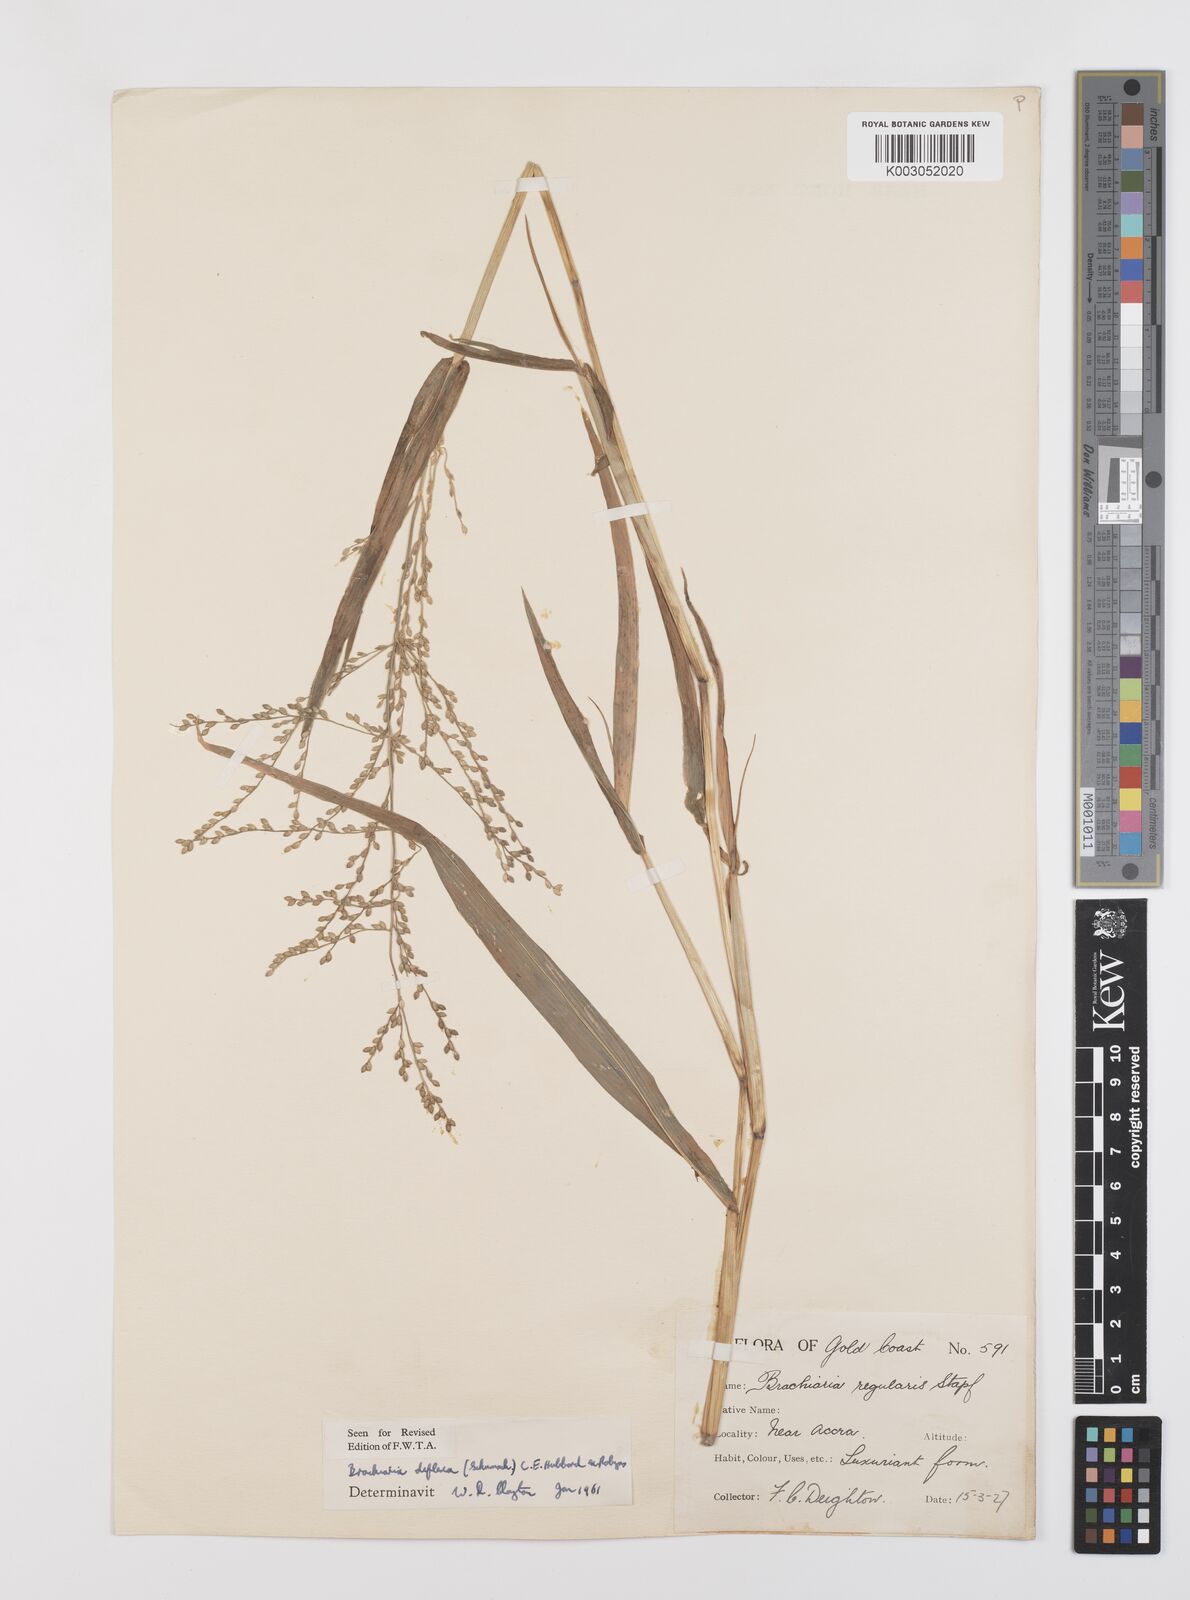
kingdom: Plantae
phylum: Tracheophyta
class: Liliopsida
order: Poales
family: Poaceae
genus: Urochloa
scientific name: Urochloa deflexa
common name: Guinea millet
